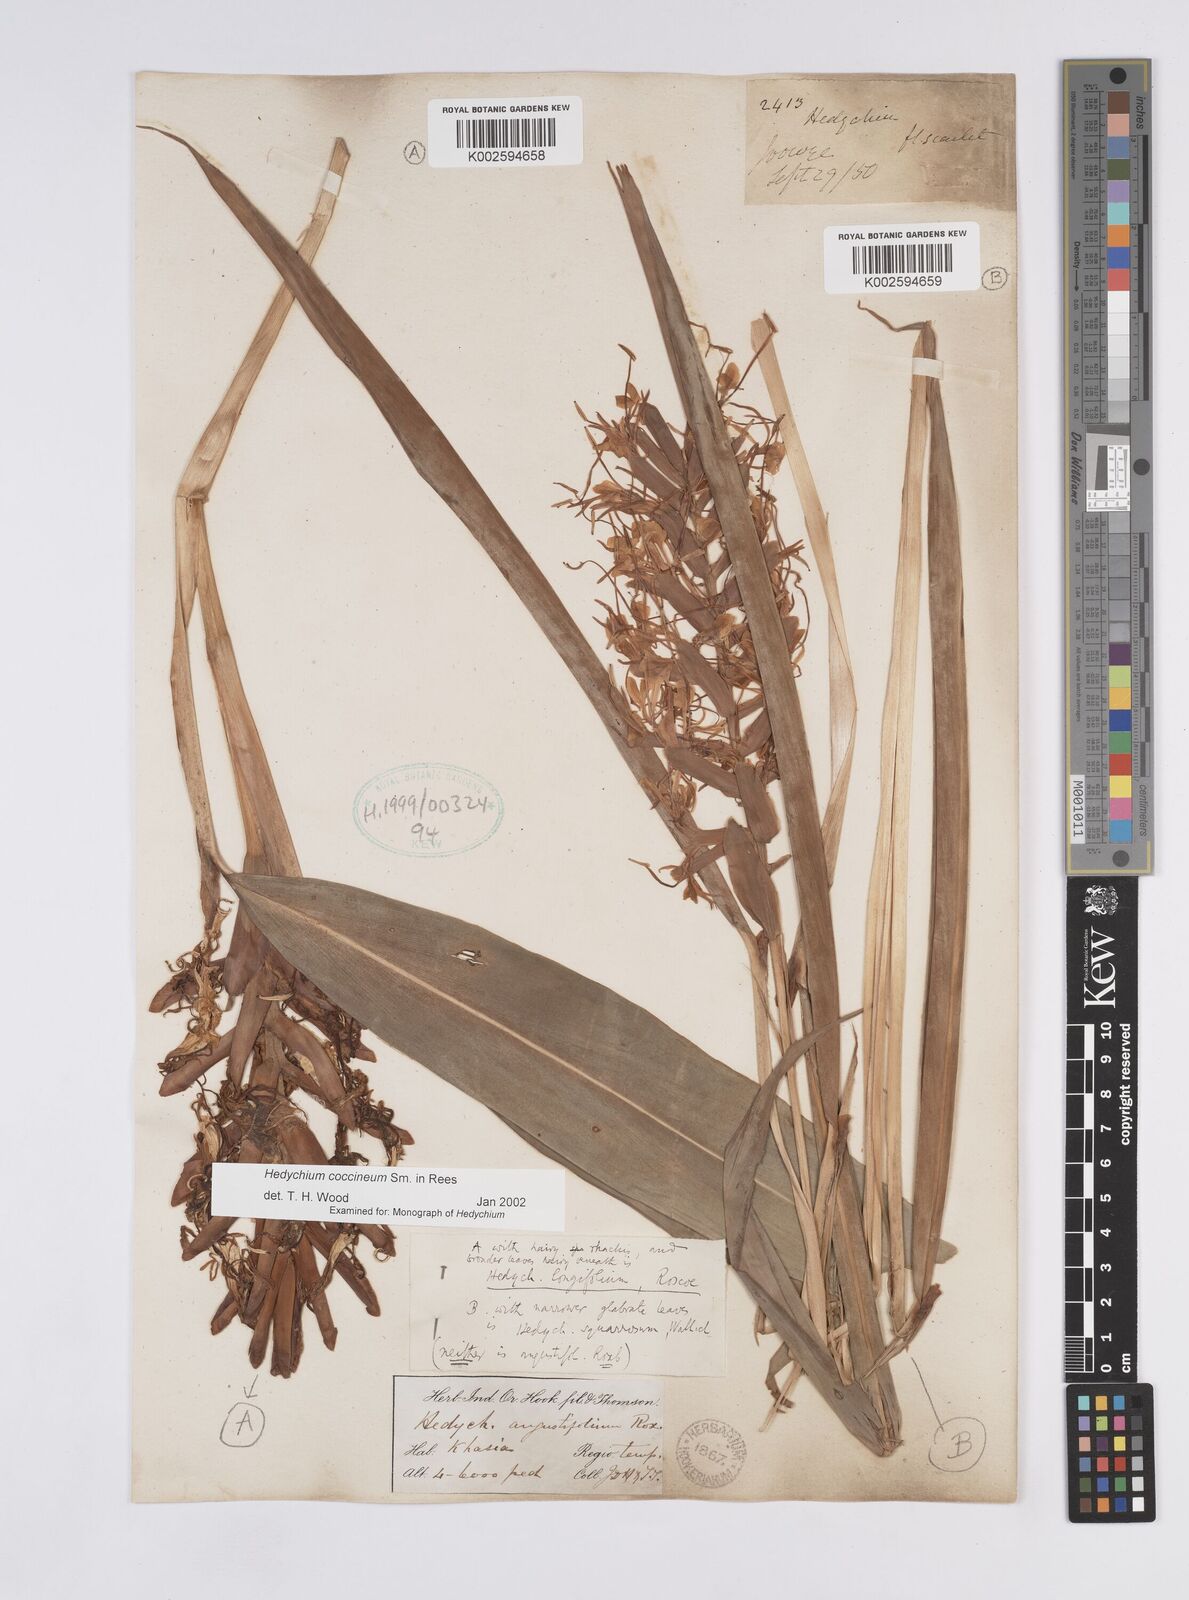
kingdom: Plantae
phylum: Tracheophyta
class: Liliopsida
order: Zingiberales
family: Zingiberaceae
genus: Hedychium
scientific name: Hedychium coccineum
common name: Red ginger-lily
